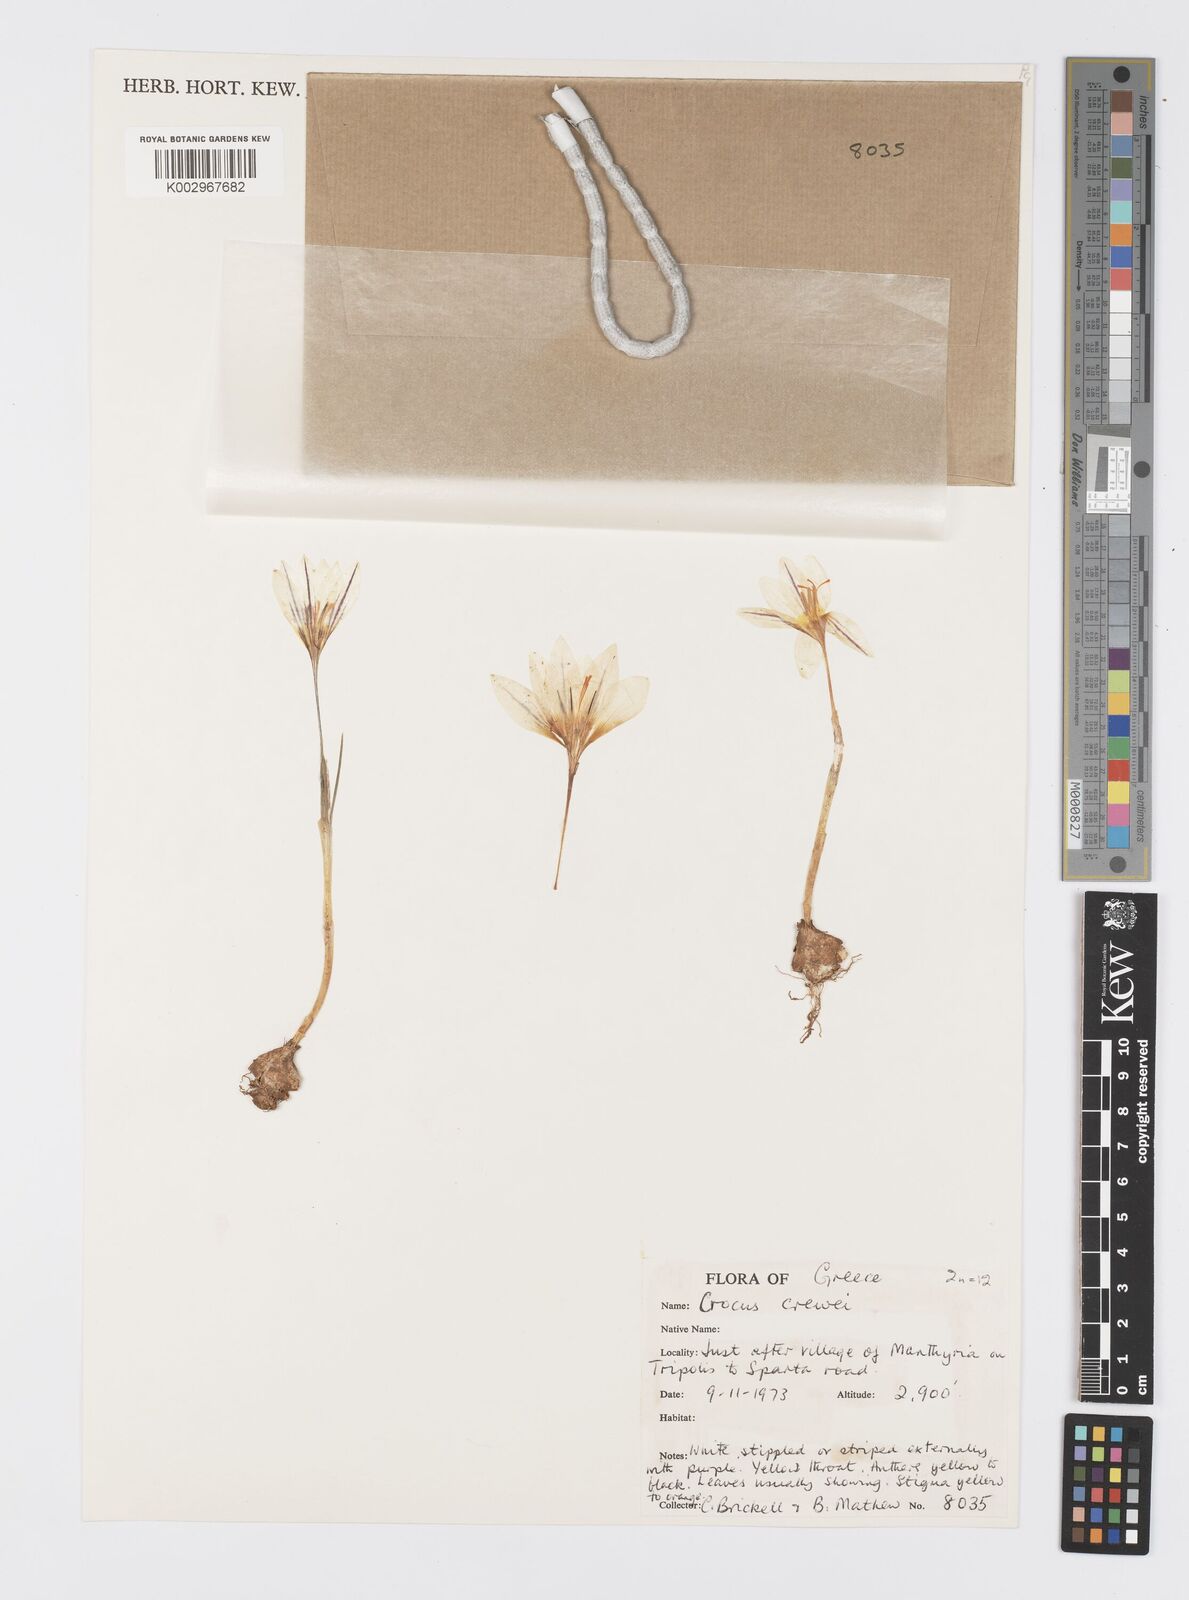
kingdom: Plantae
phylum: Tracheophyta
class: Liliopsida
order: Asparagales
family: Iridaceae
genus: Crocus
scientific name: Crocus melantherus
